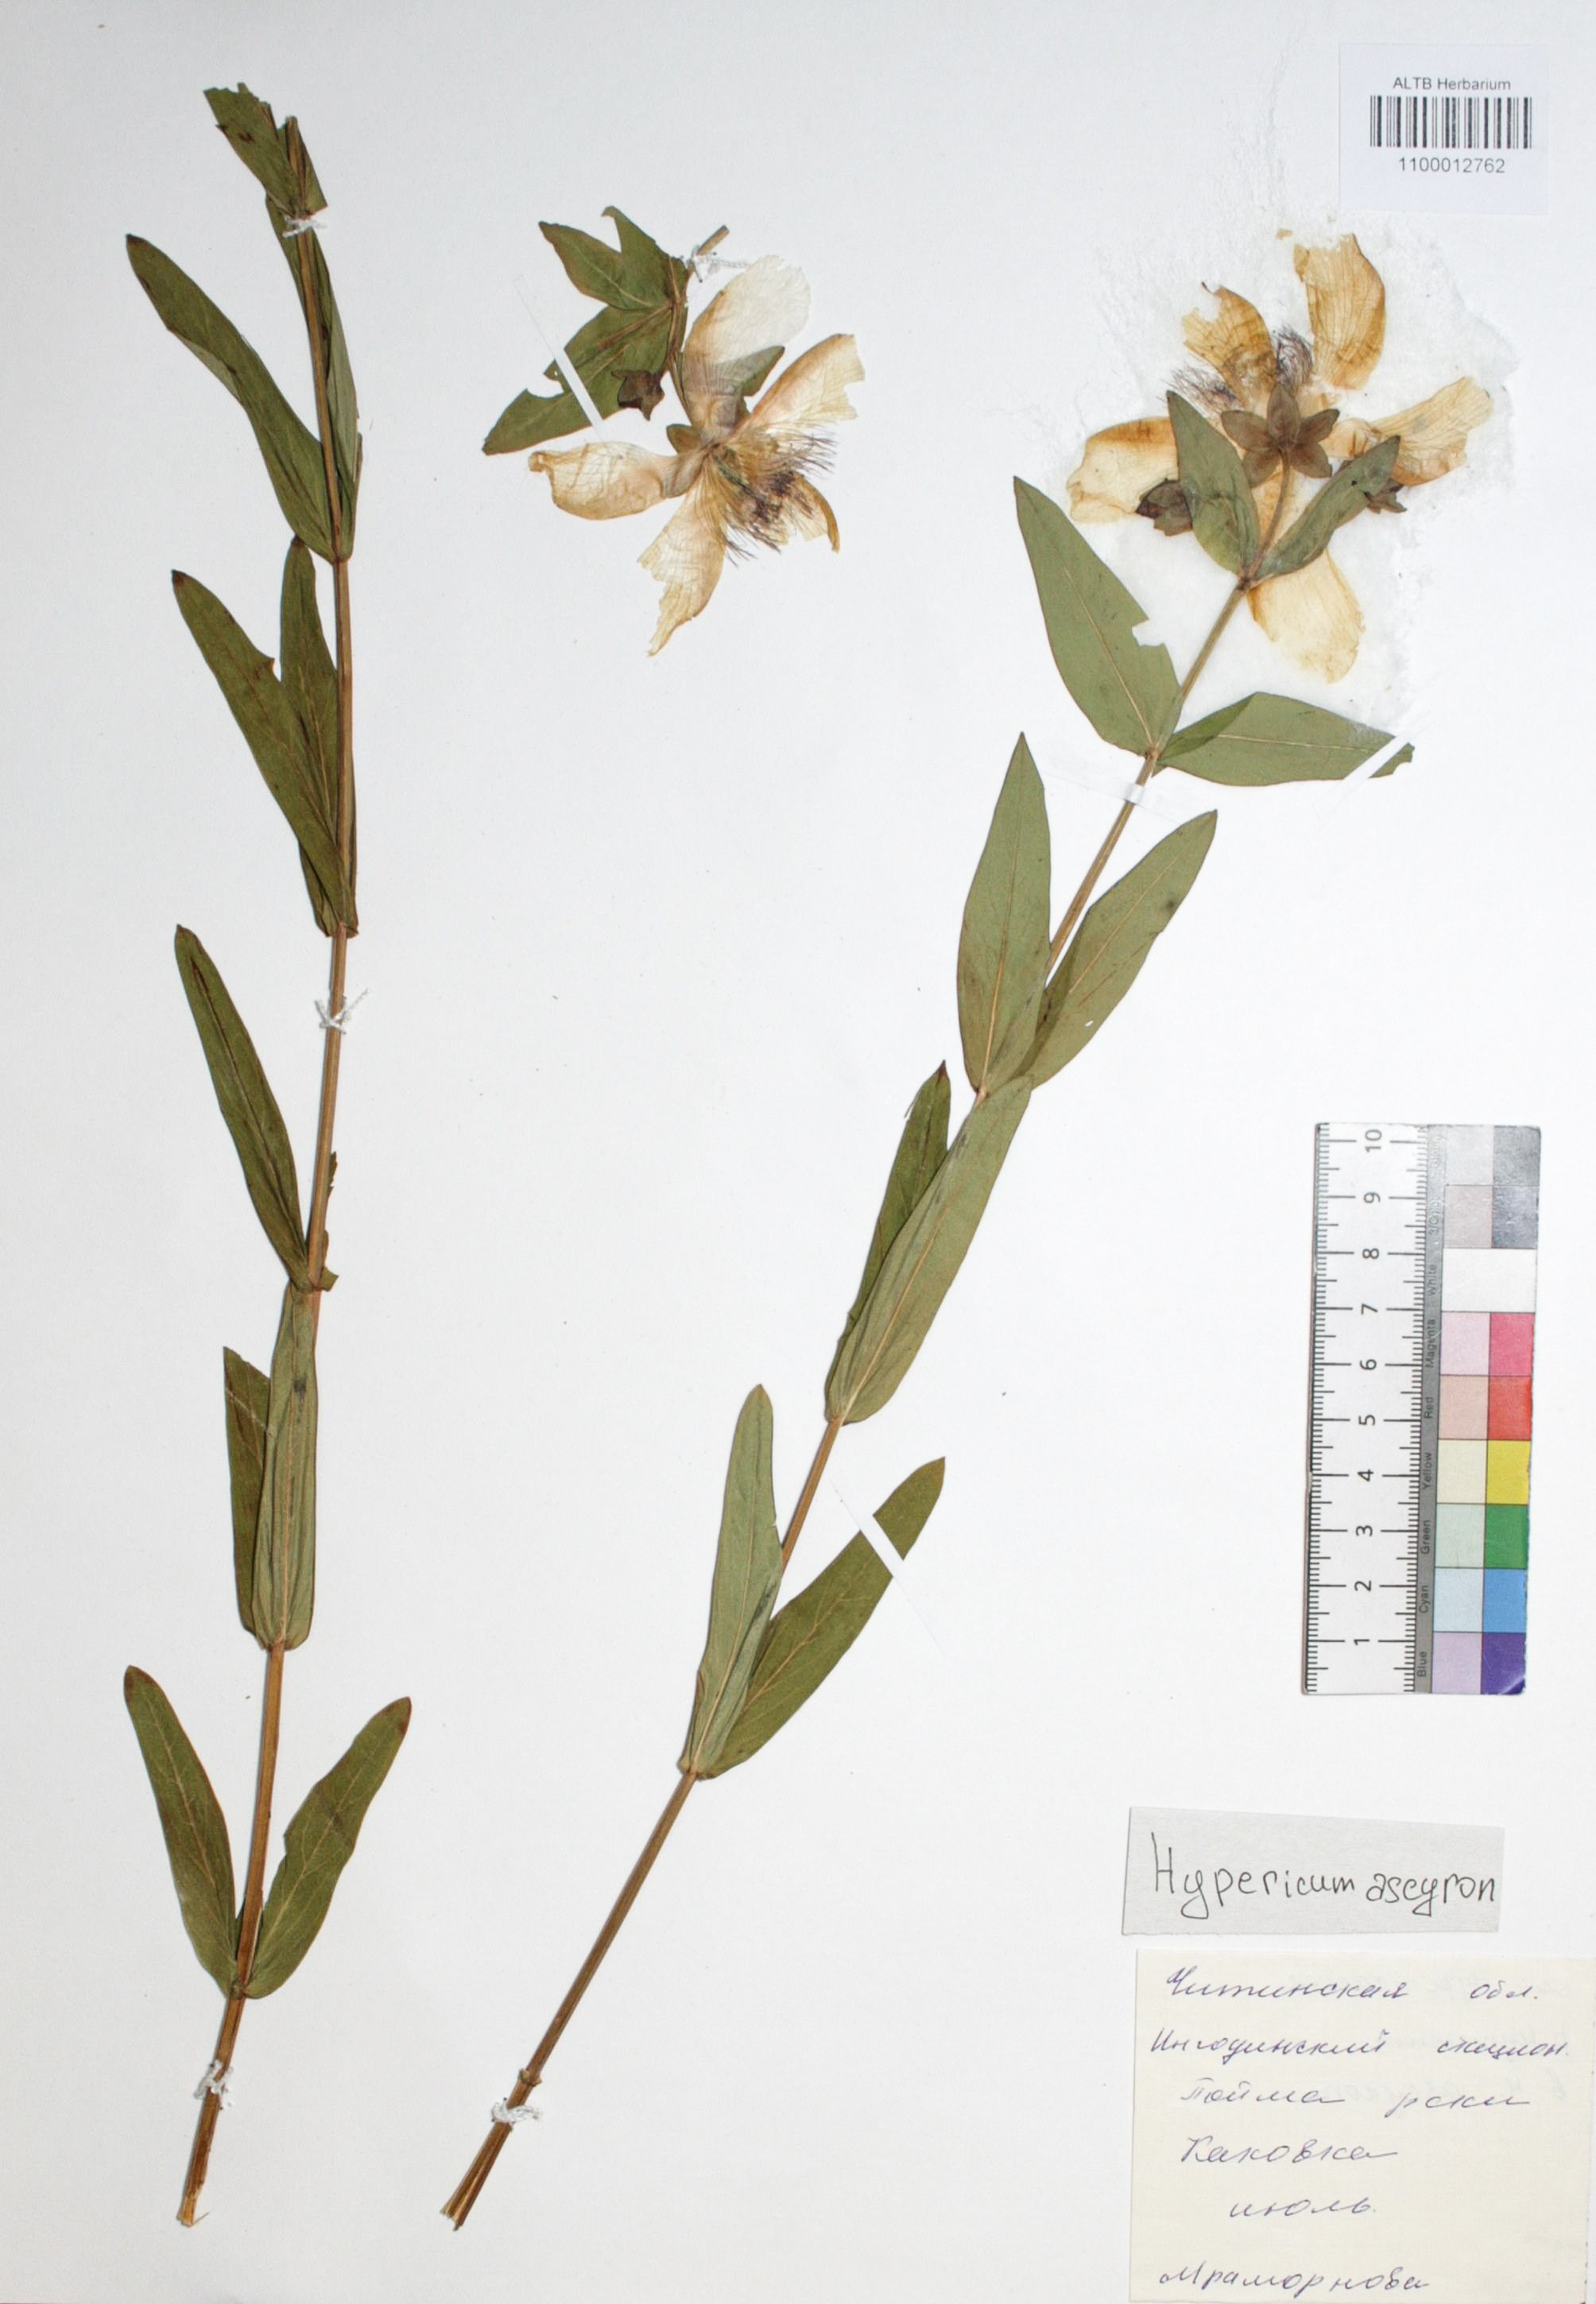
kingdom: Plantae
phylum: Tracheophyta
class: Magnoliopsida
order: Malpighiales
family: Hypericaceae
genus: Hypericum
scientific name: Hypericum ascyron
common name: Giant st. john's-wort
